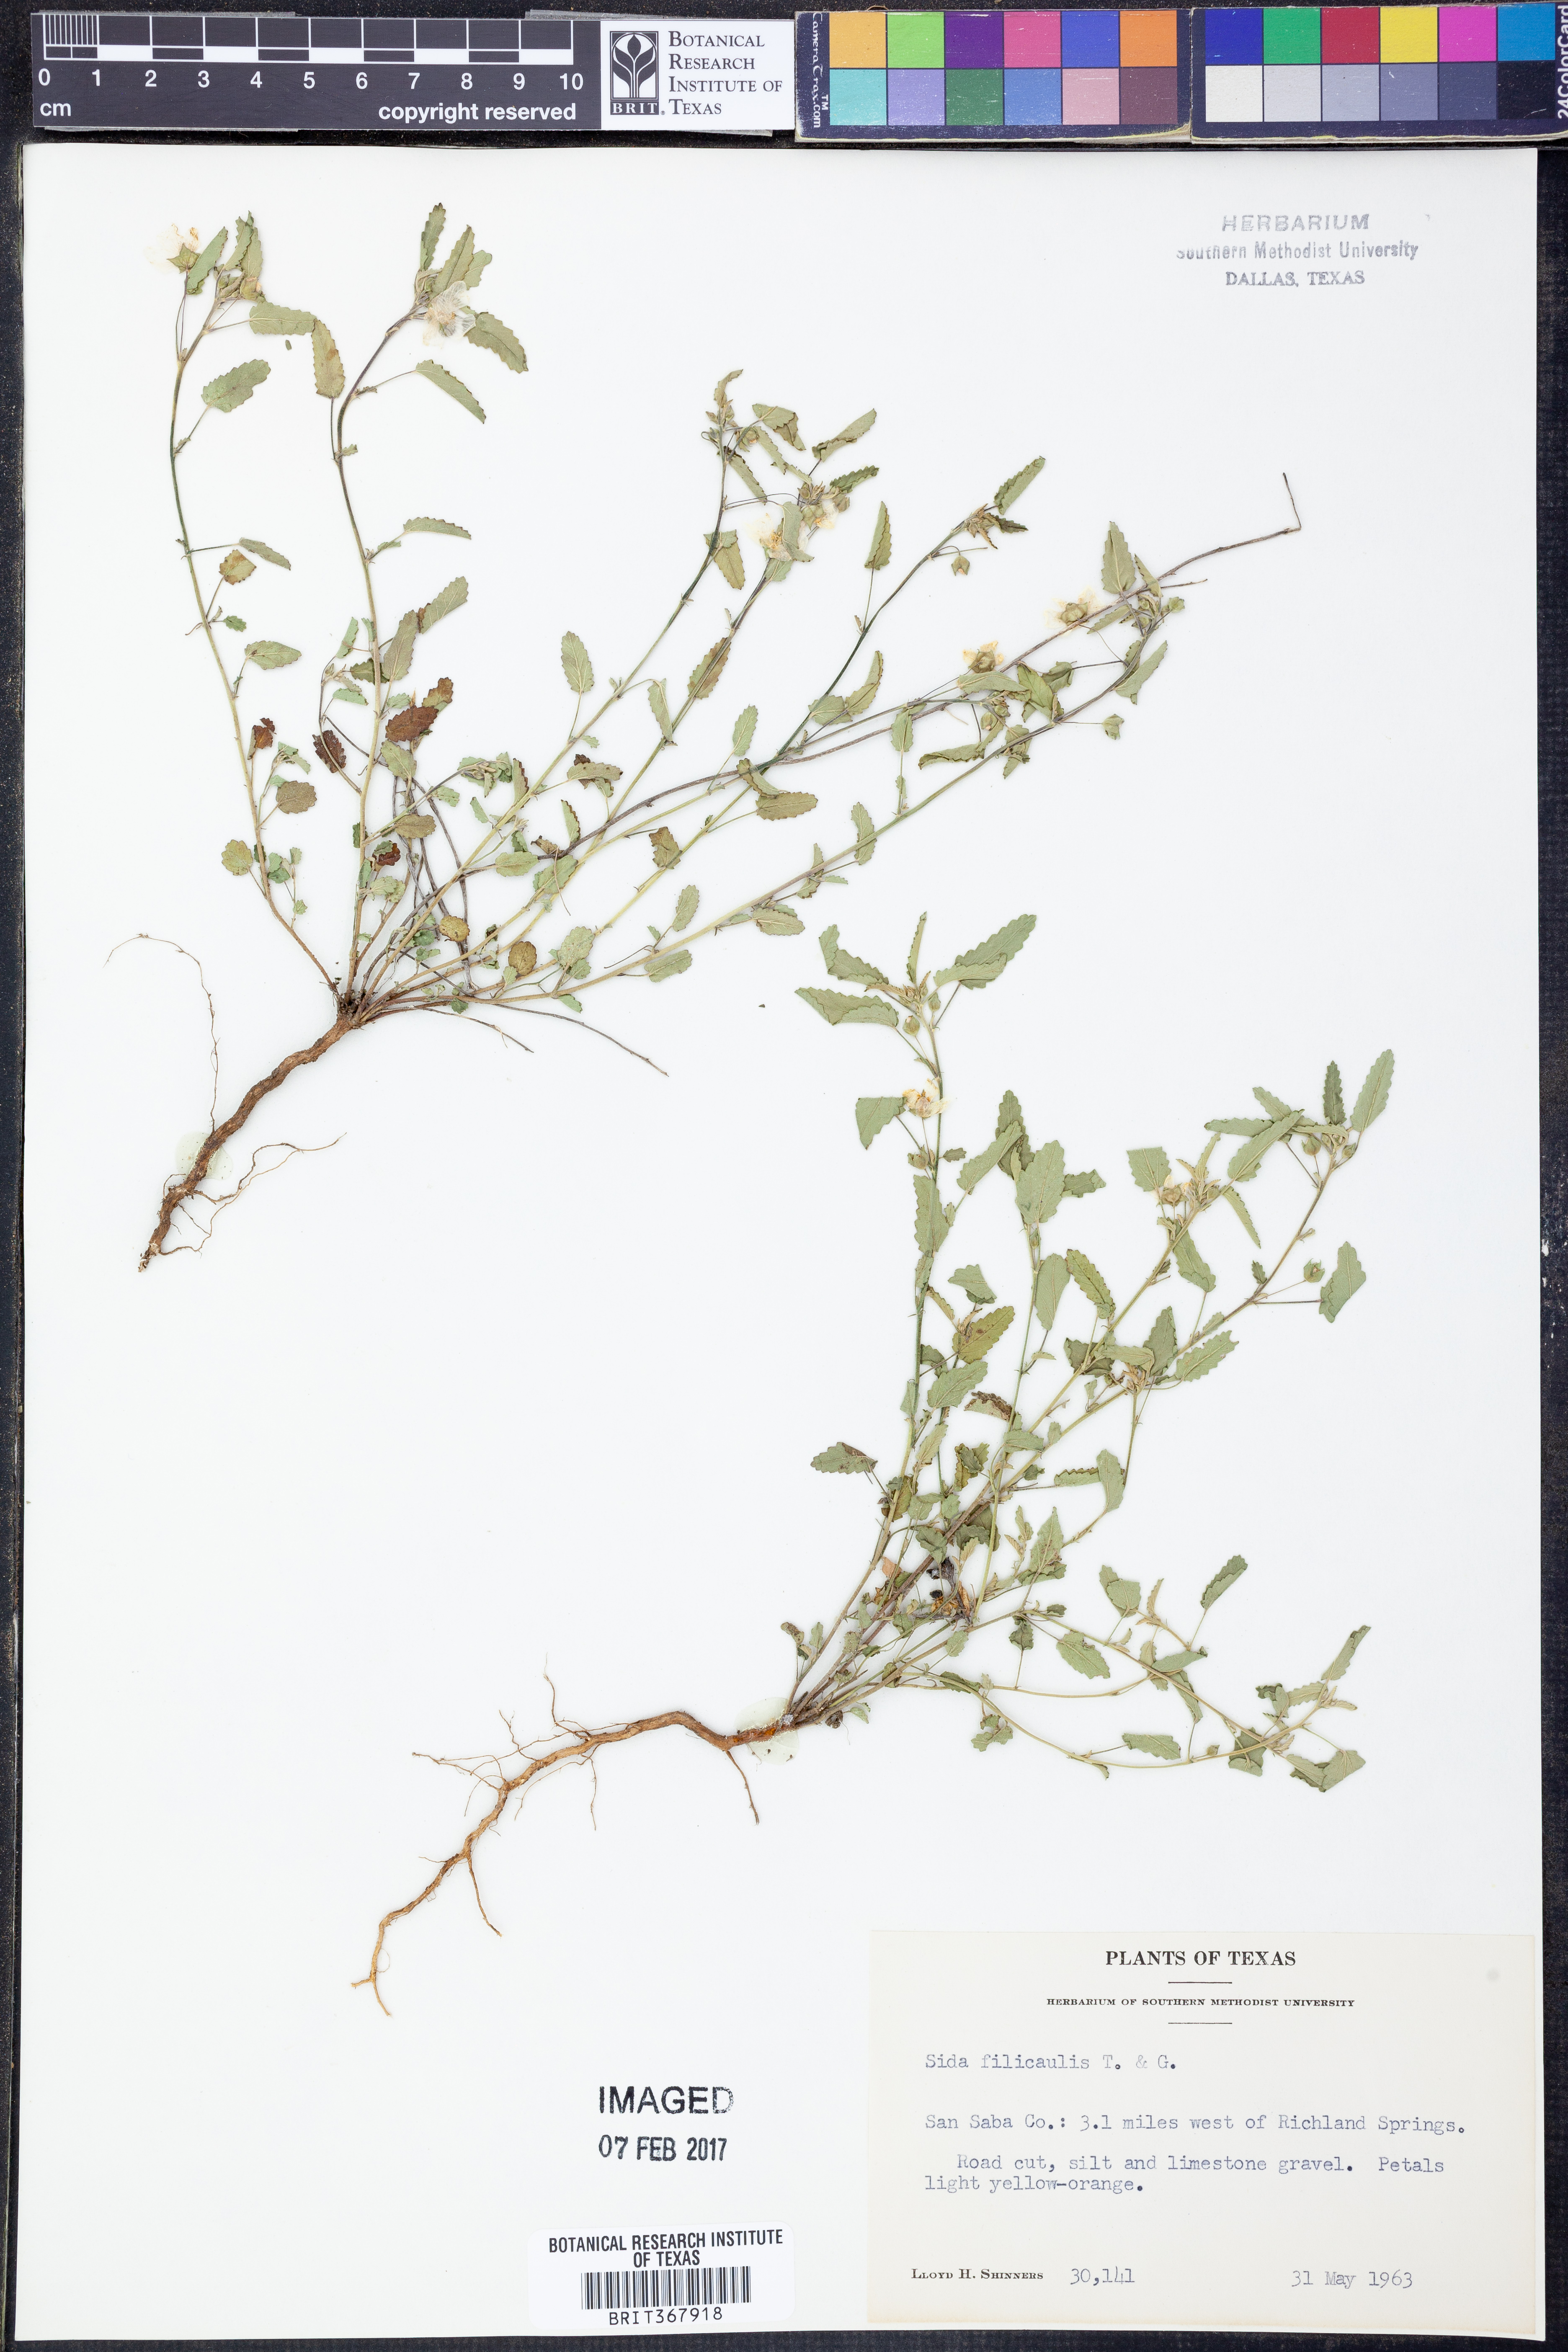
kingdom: Plantae
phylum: Tracheophyta
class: Magnoliopsida
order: Malvales
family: Malvaceae
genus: Sida
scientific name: Sida abutilifolia
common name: Spreading fanpetals
